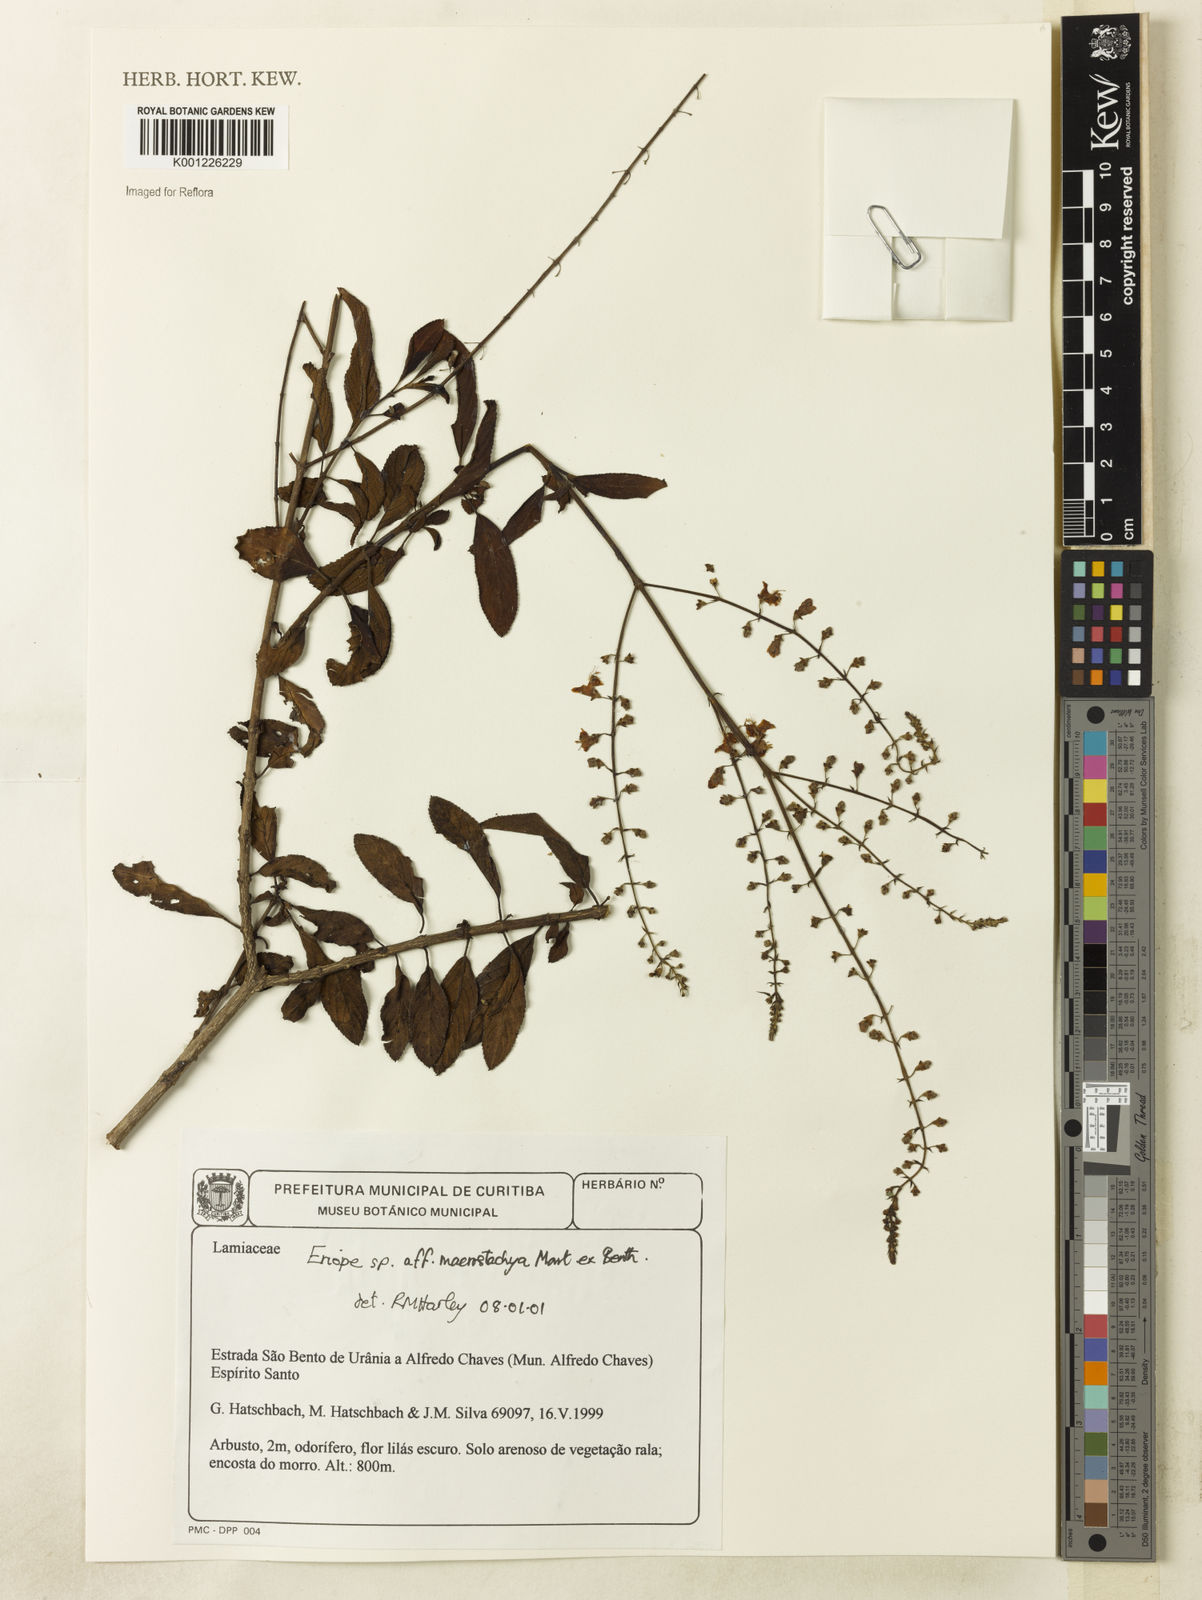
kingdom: Plantae
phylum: Tracheophyta
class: Magnoliopsida
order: Lamiales
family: Lamiaceae
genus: Eriope
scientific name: Eriope macrostachya
